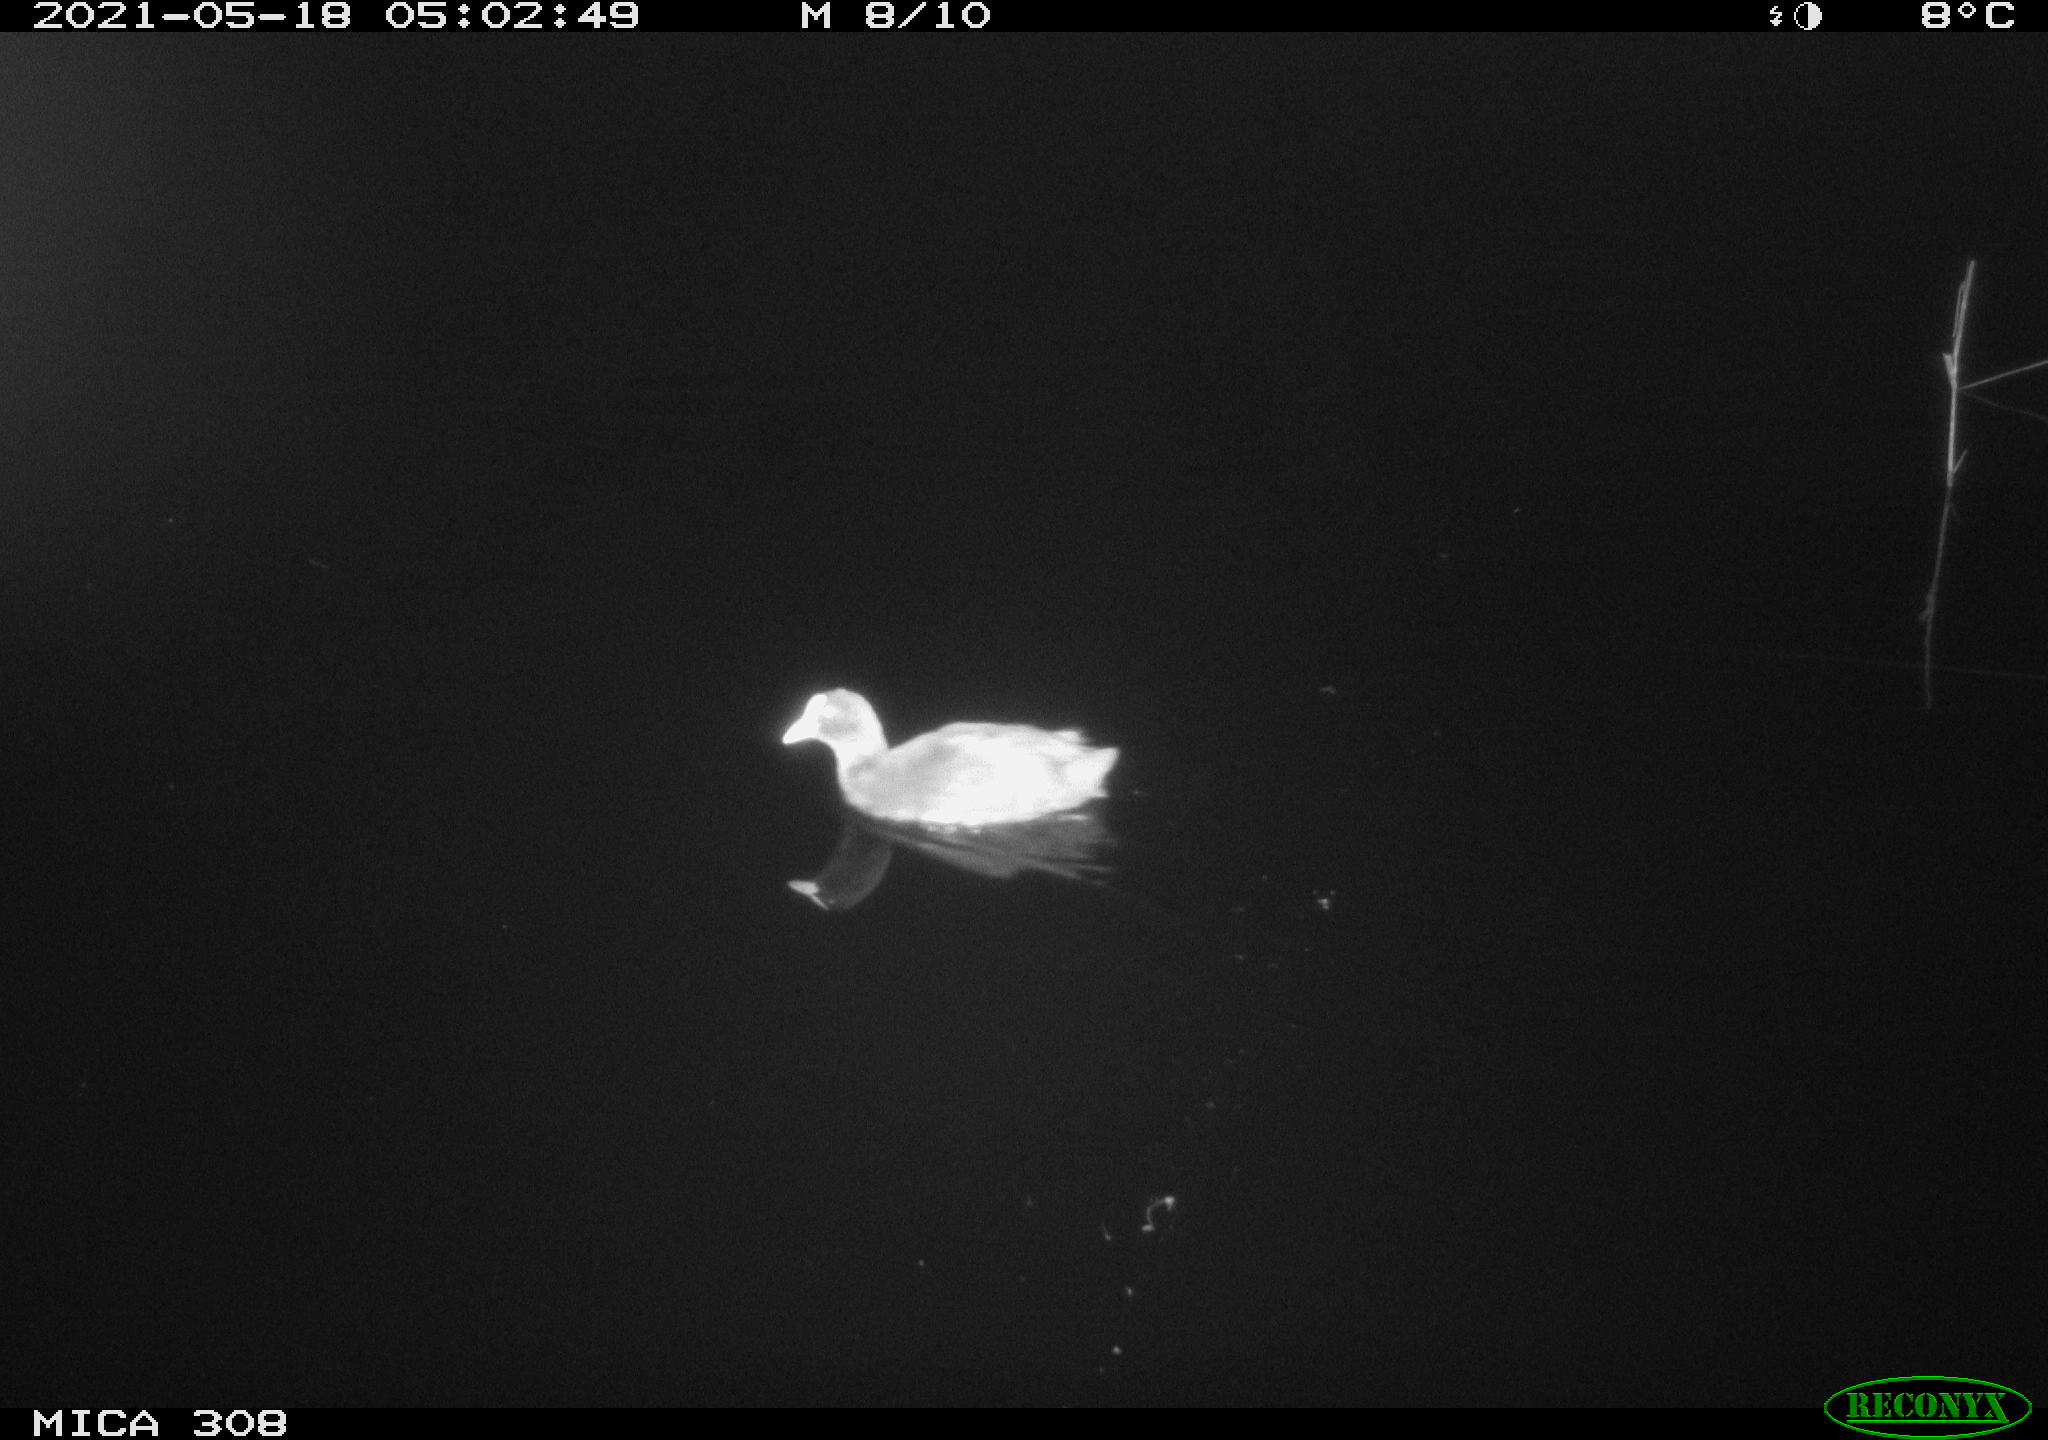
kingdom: Animalia
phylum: Chordata
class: Aves
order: Gruiformes
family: Rallidae
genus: Fulica
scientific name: Fulica atra
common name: Eurasian coot
